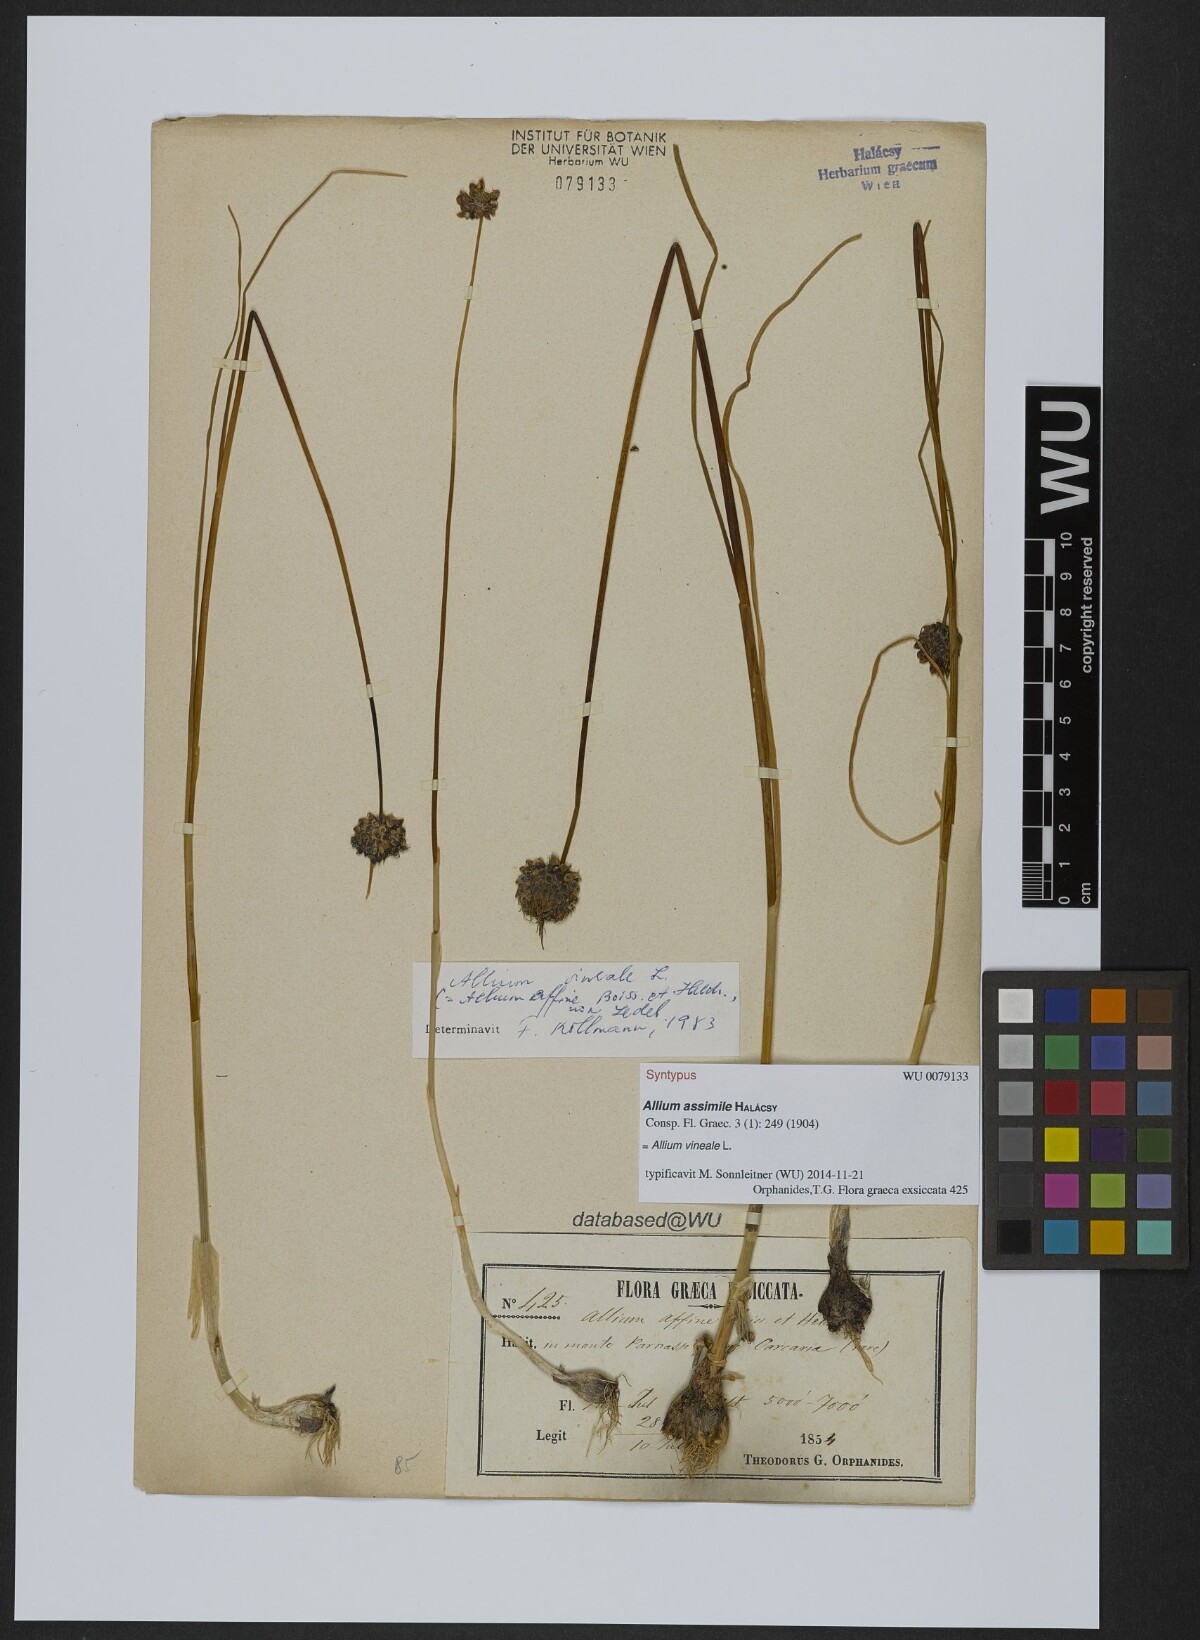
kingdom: Plantae
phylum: Tracheophyta
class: Liliopsida
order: Asparagales
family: Amaryllidaceae
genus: Allium
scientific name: Allium vineale
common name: Crow garlic
